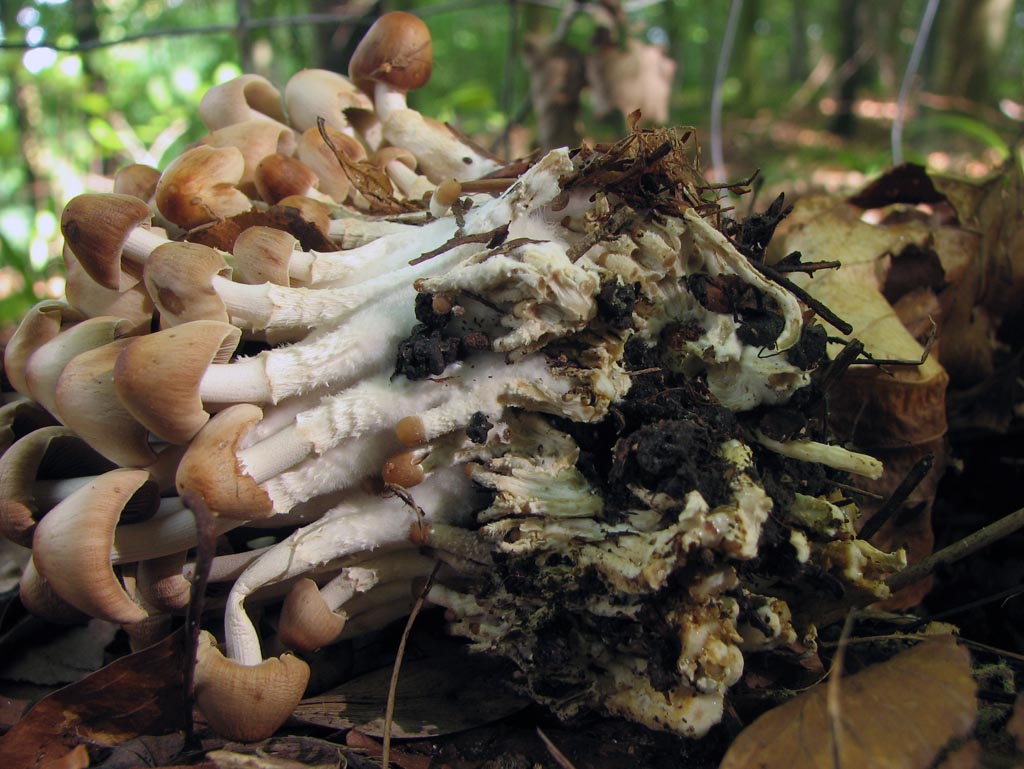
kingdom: Fungi
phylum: Basidiomycota
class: Agaricomycetes
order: Agaricales
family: Psathyrellaceae
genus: Britzelmayria
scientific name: Britzelmayria multipedata
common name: knippe-mørkhat
